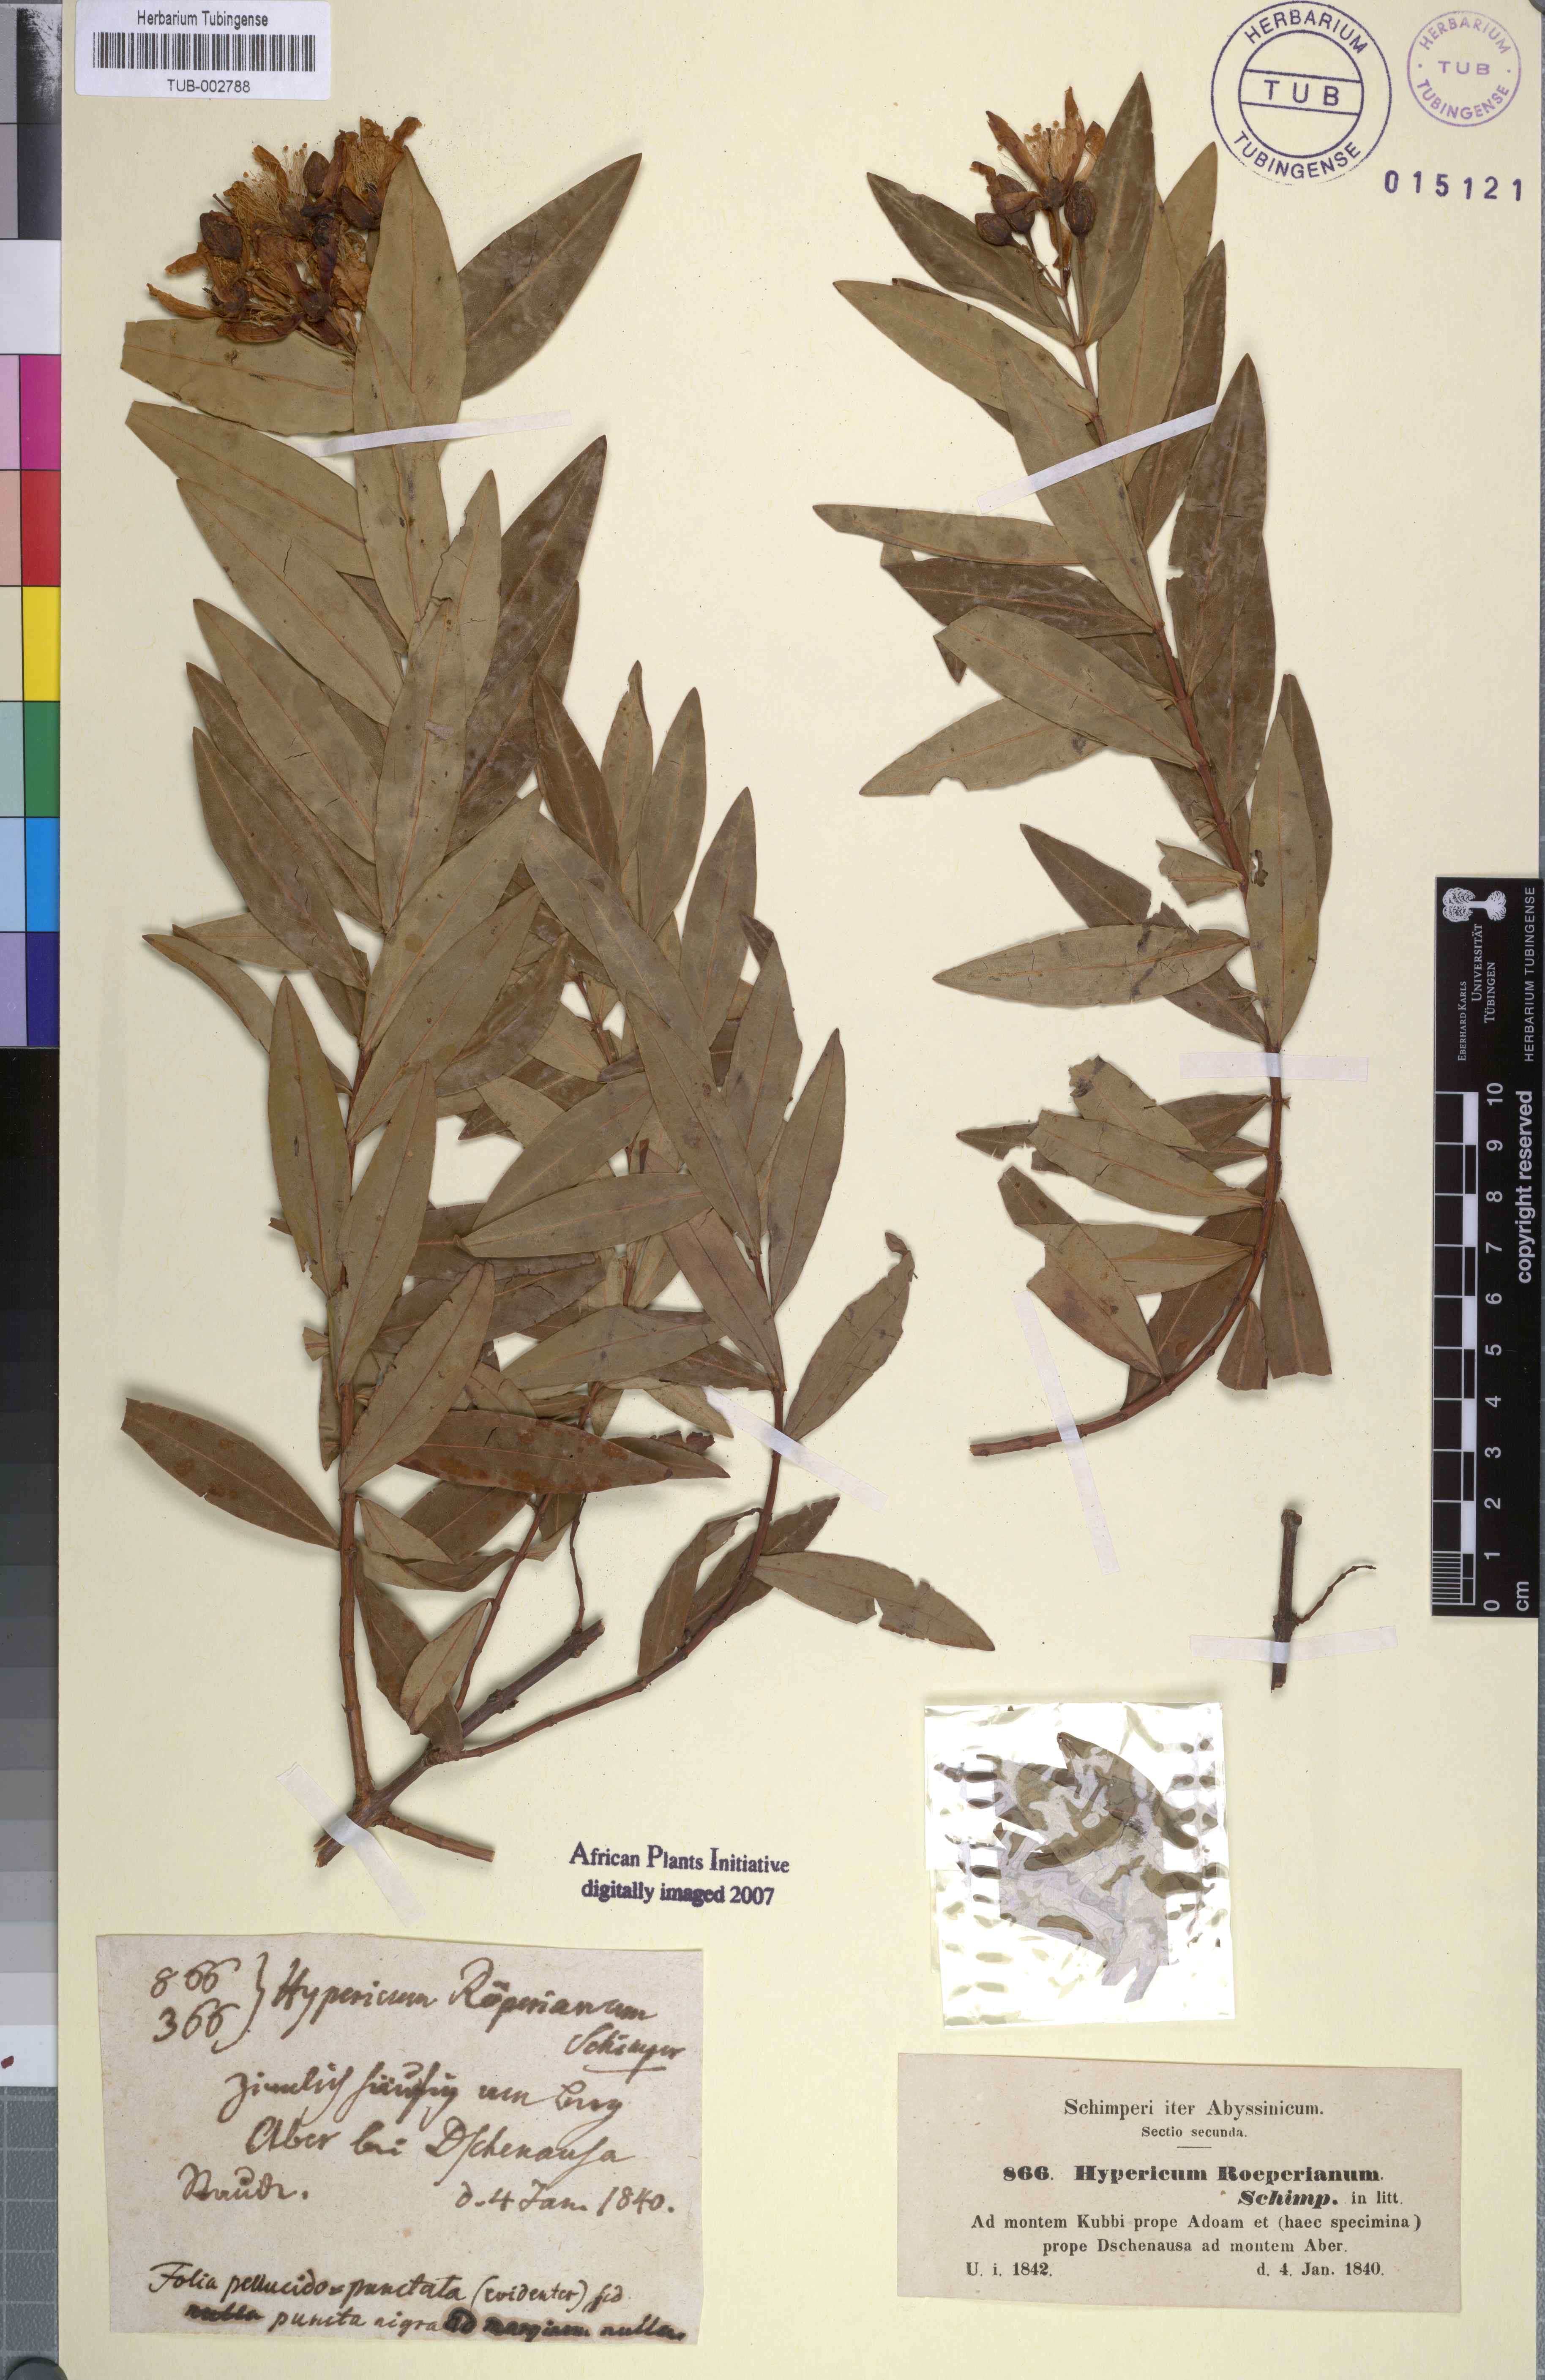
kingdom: Plantae
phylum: Tracheophyta
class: Magnoliopsida
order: Malpighiales
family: Hypericaceae
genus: Hypericum
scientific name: Hypericum quartinianum
